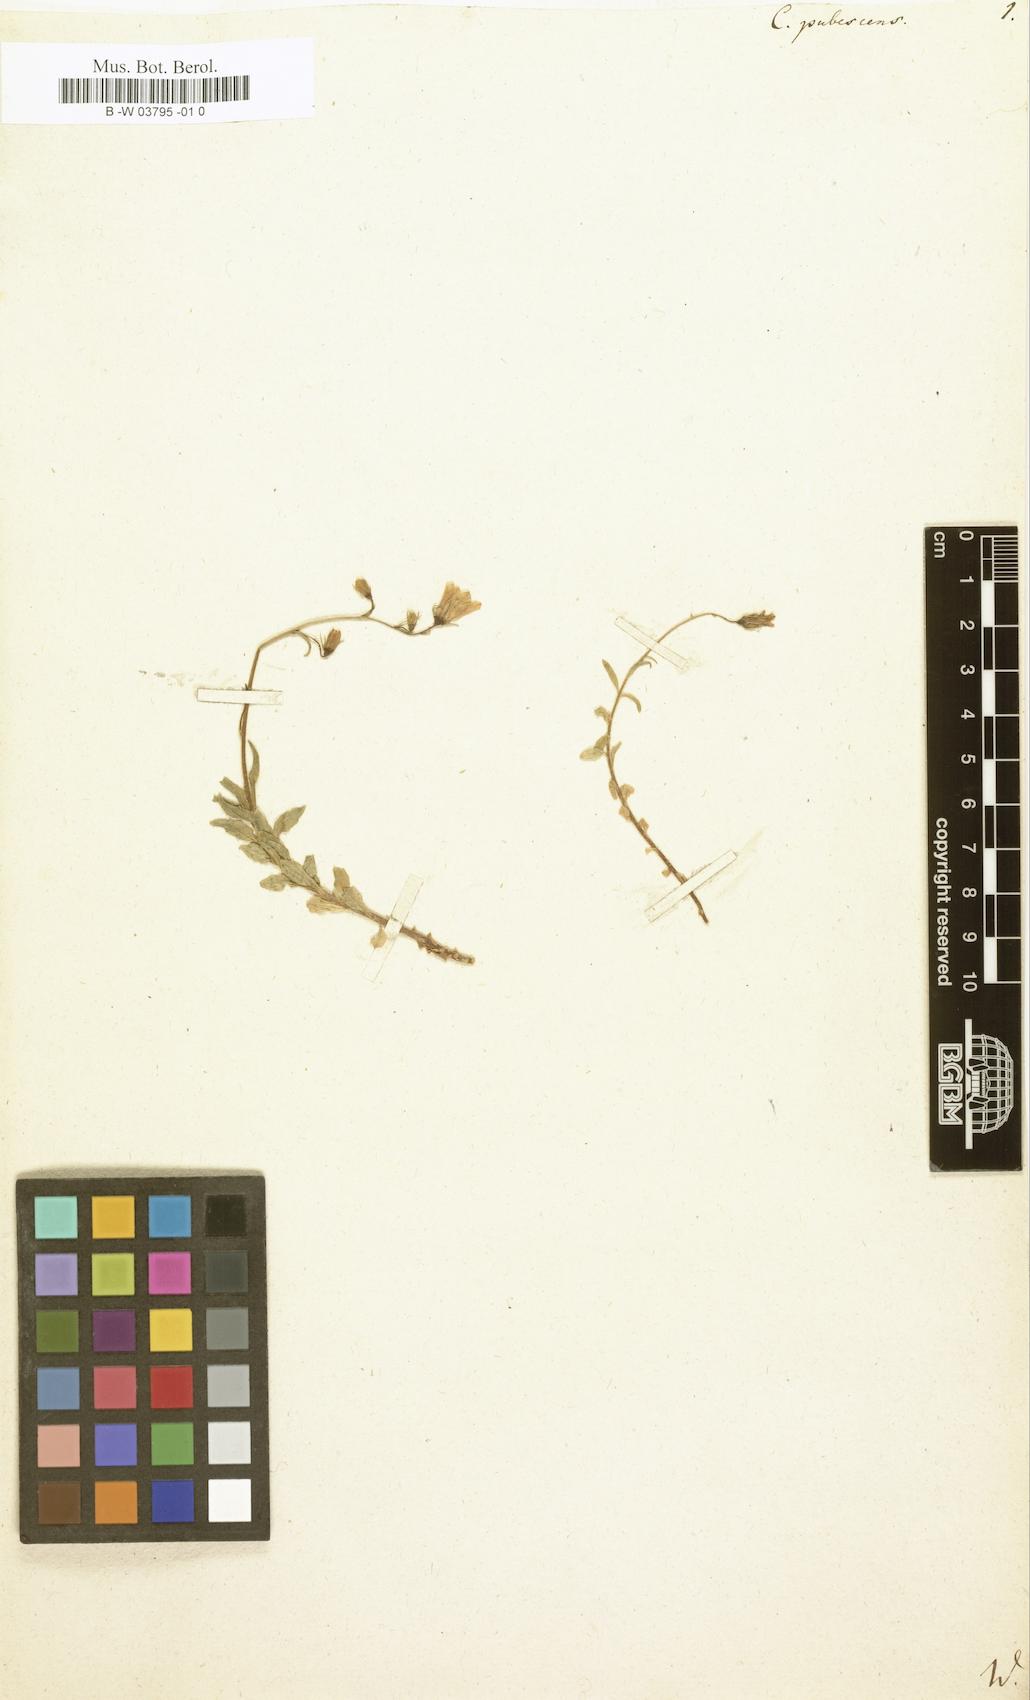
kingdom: Plantae
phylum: Tracheophyta
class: Magnoliopsida
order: Asterales
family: Campanulaceae
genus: Campanula
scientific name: Campanula
